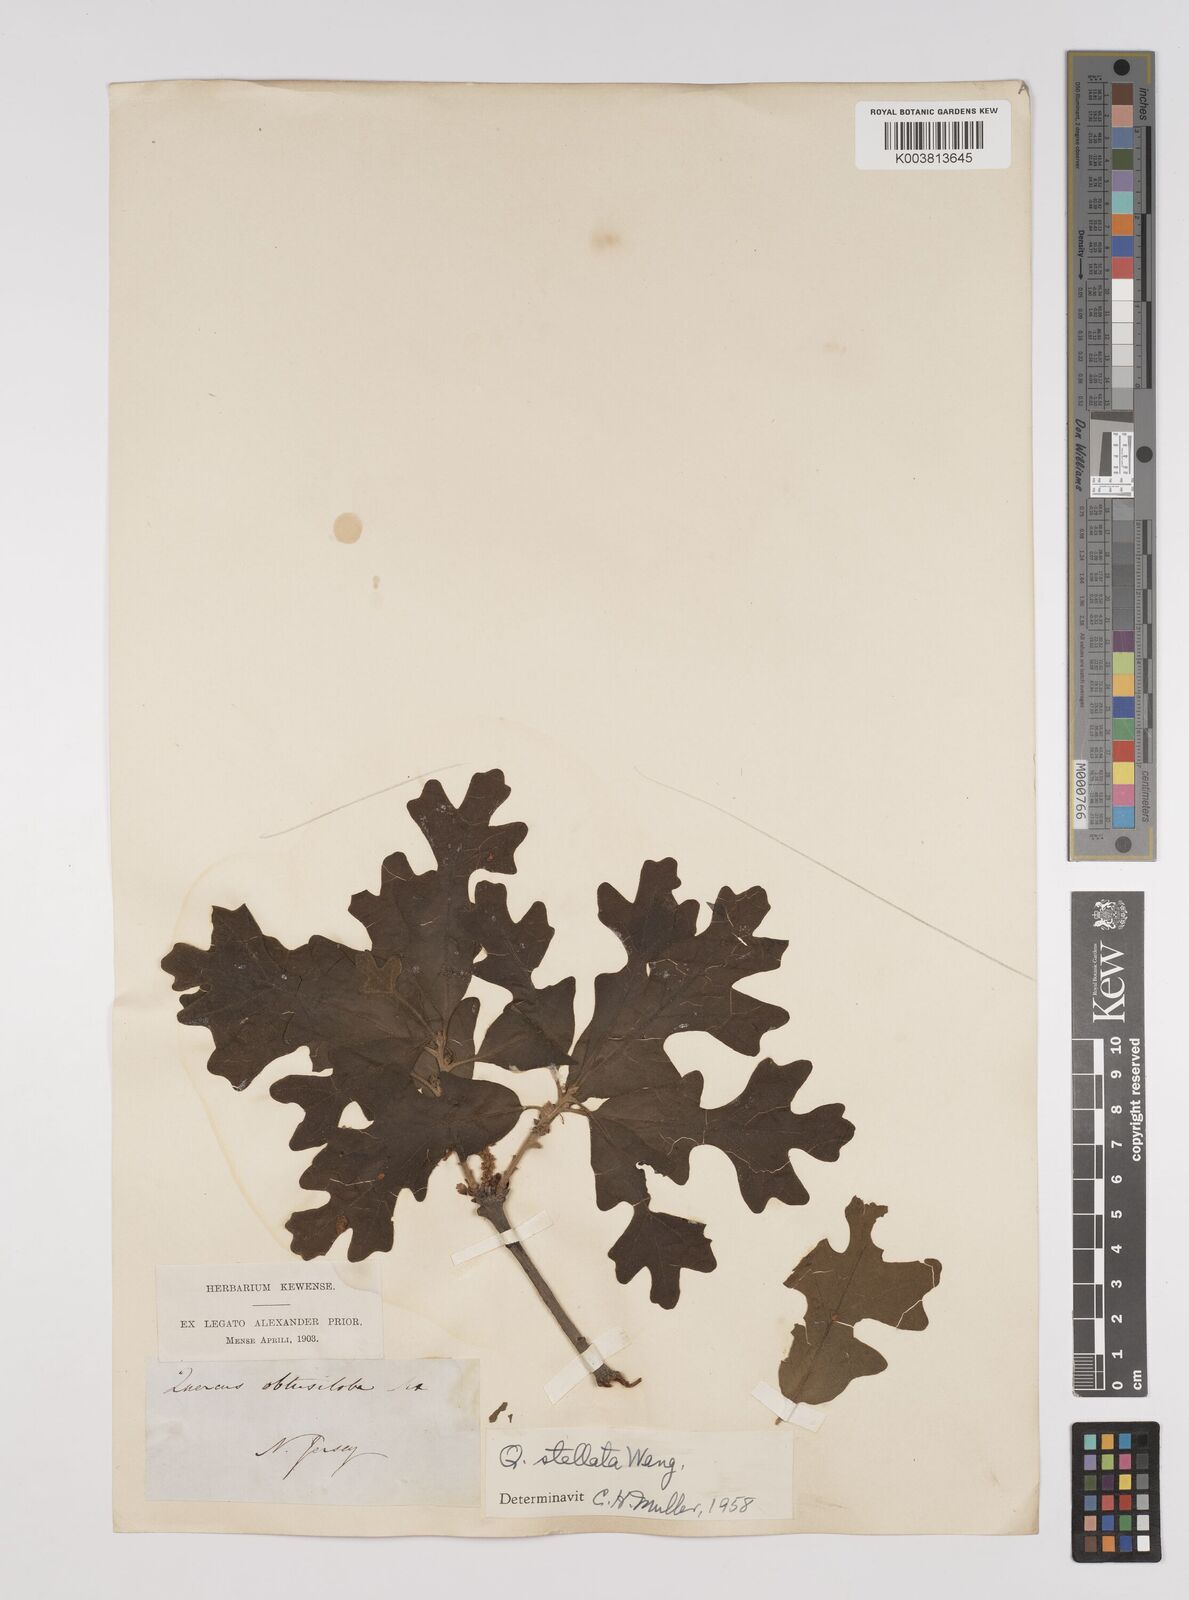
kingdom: Plantae
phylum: Tracheophyta
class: Magnoliopsida
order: Fagales
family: Fagaceae
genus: Quercus
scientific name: Quercus stellata
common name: Post oak
